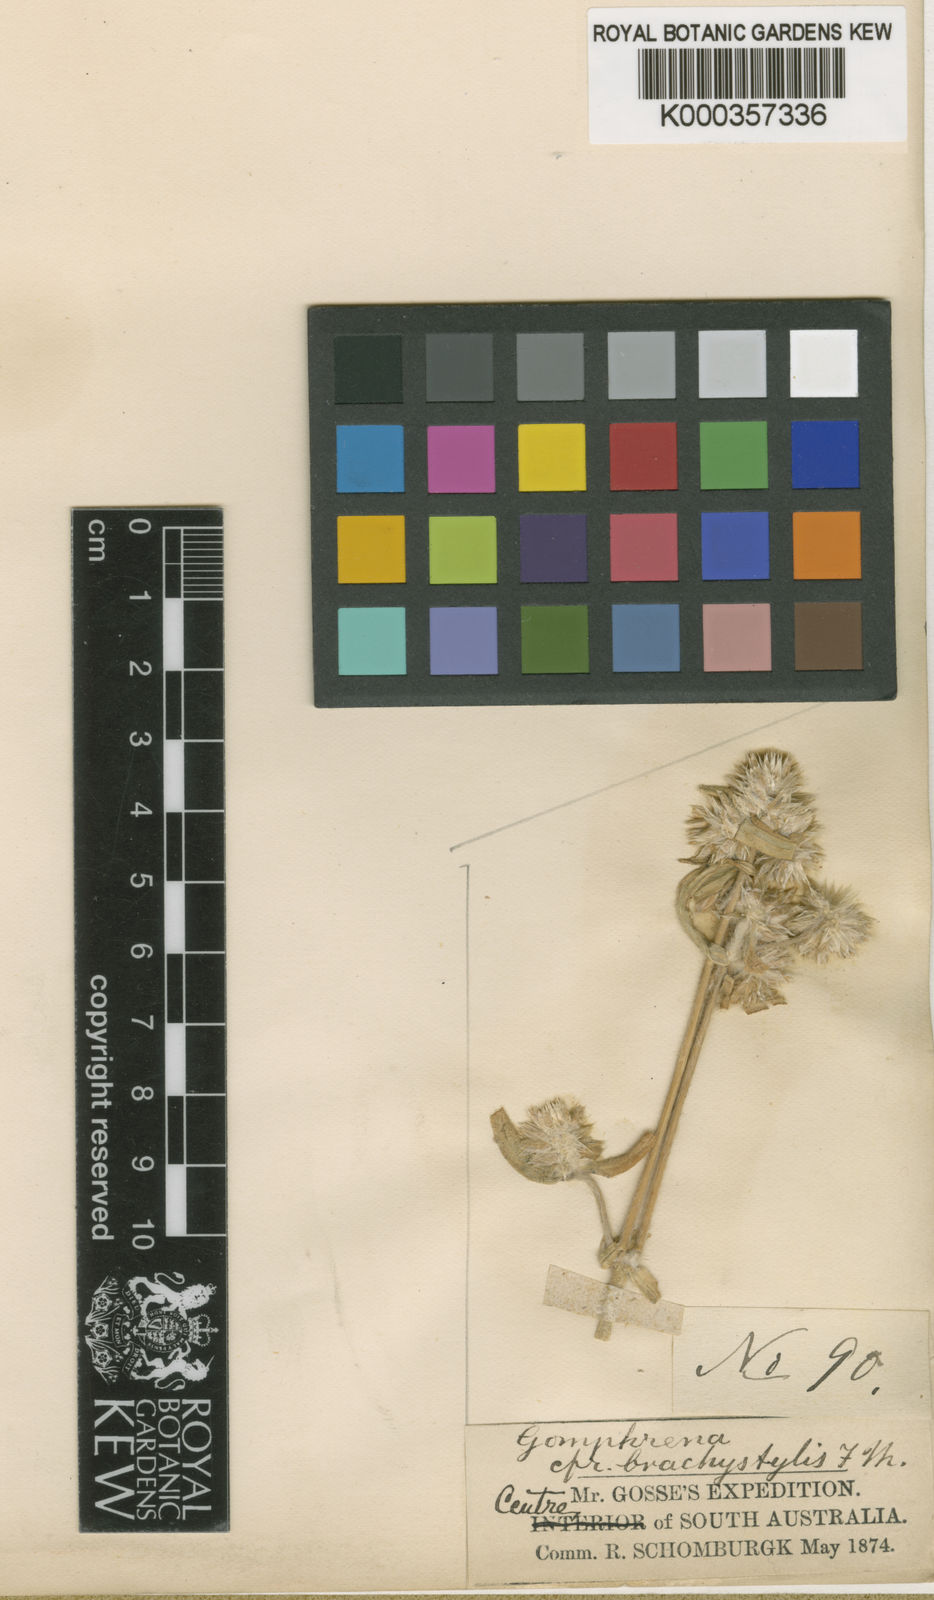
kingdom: Plantae
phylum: Tracheophyta
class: Magnoliopsida
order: Caryophyllales
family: Amaranthaceae
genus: Gomphrena
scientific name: Gomphrena brachystylis
